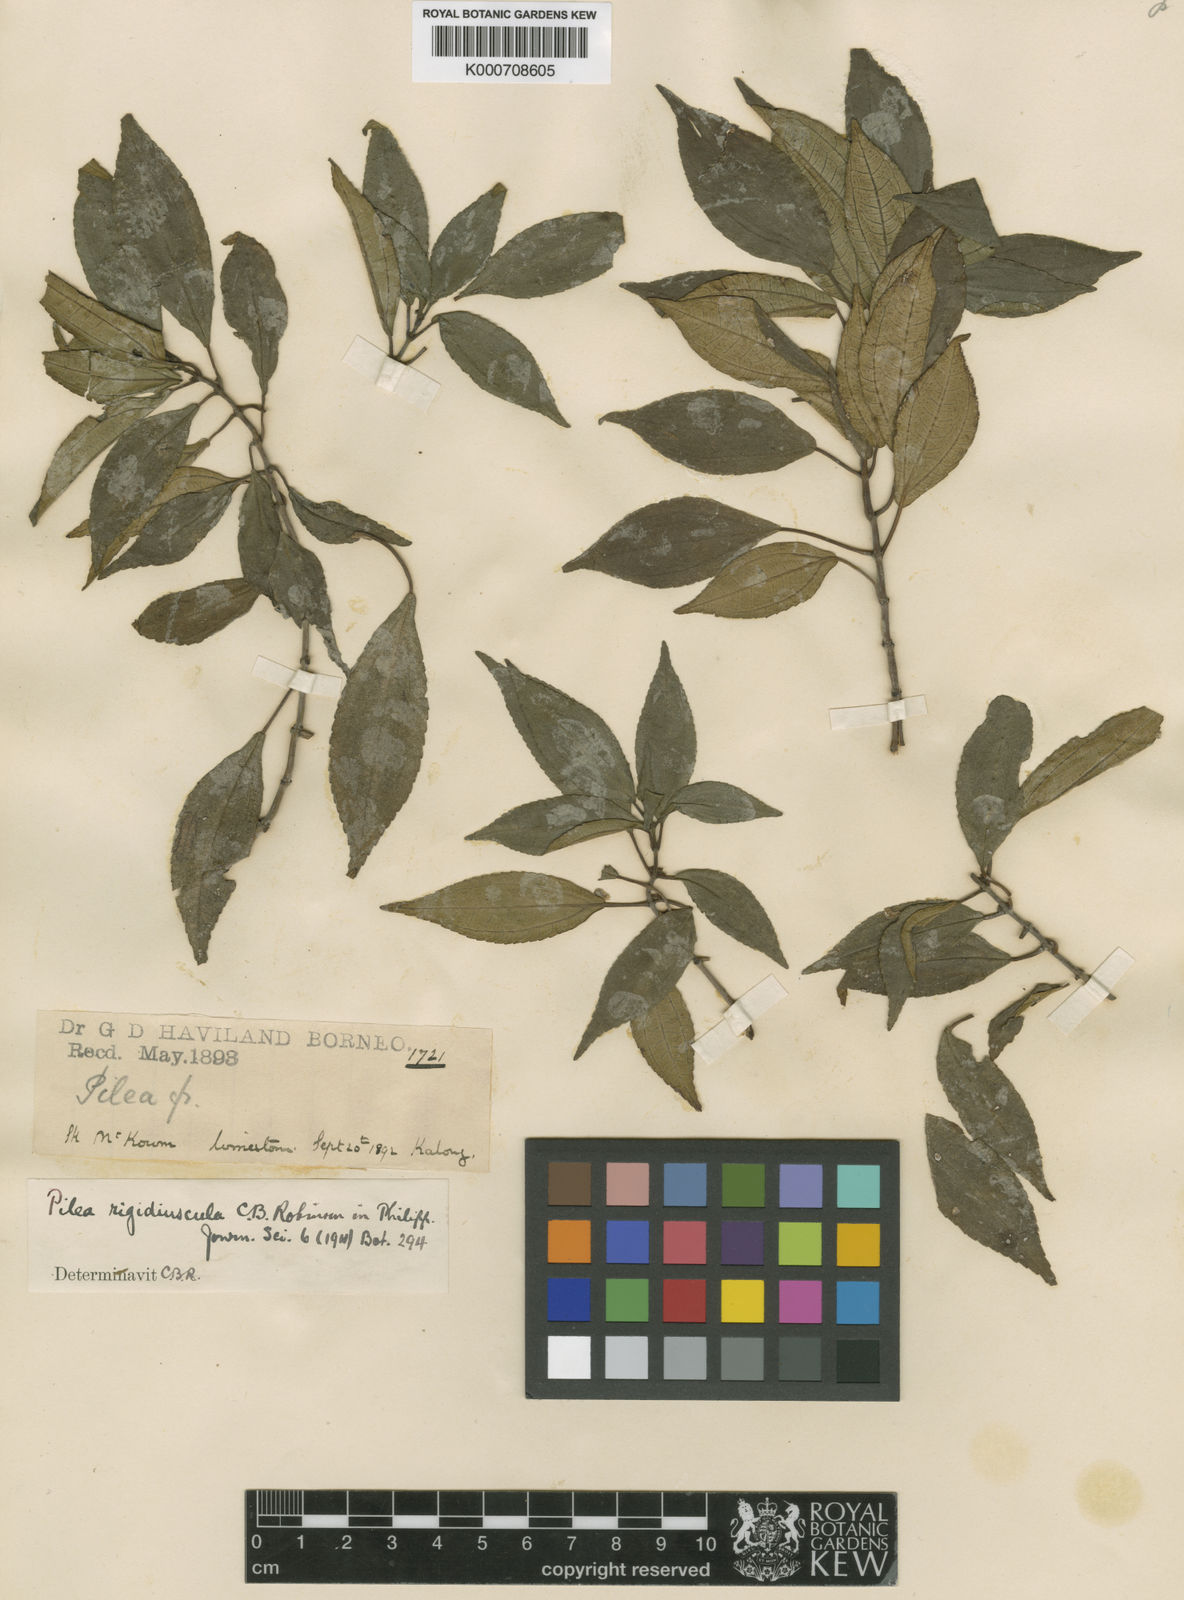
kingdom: Plantae
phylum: Tracheophyta
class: Magnoliopsida
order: Rosales
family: Urticaceae
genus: Pilea
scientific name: Pilea rigidiuscula
